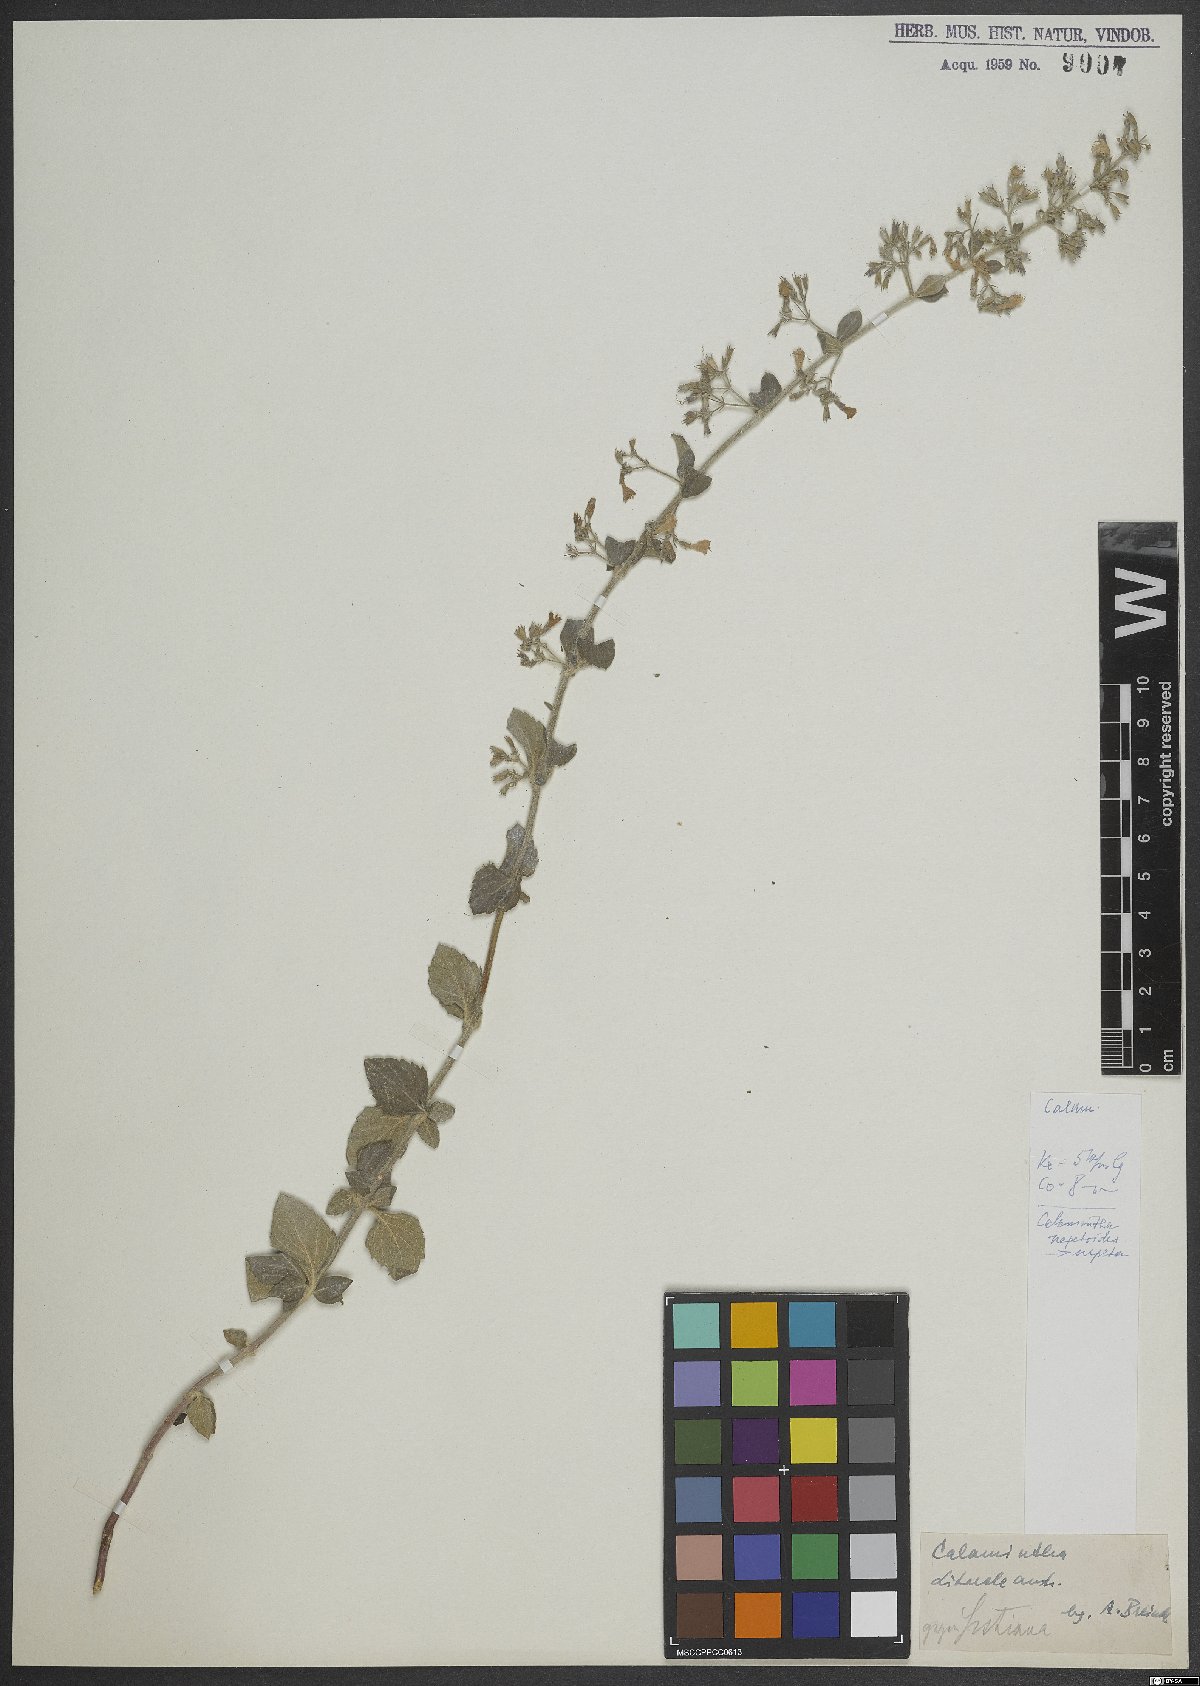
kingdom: Plantae
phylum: Tracheophyta
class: Magnoliopsida
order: Lamiales
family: Lamiaceae
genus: Clinopodium
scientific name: Clinopodium nepeta
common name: Lesser calamint
